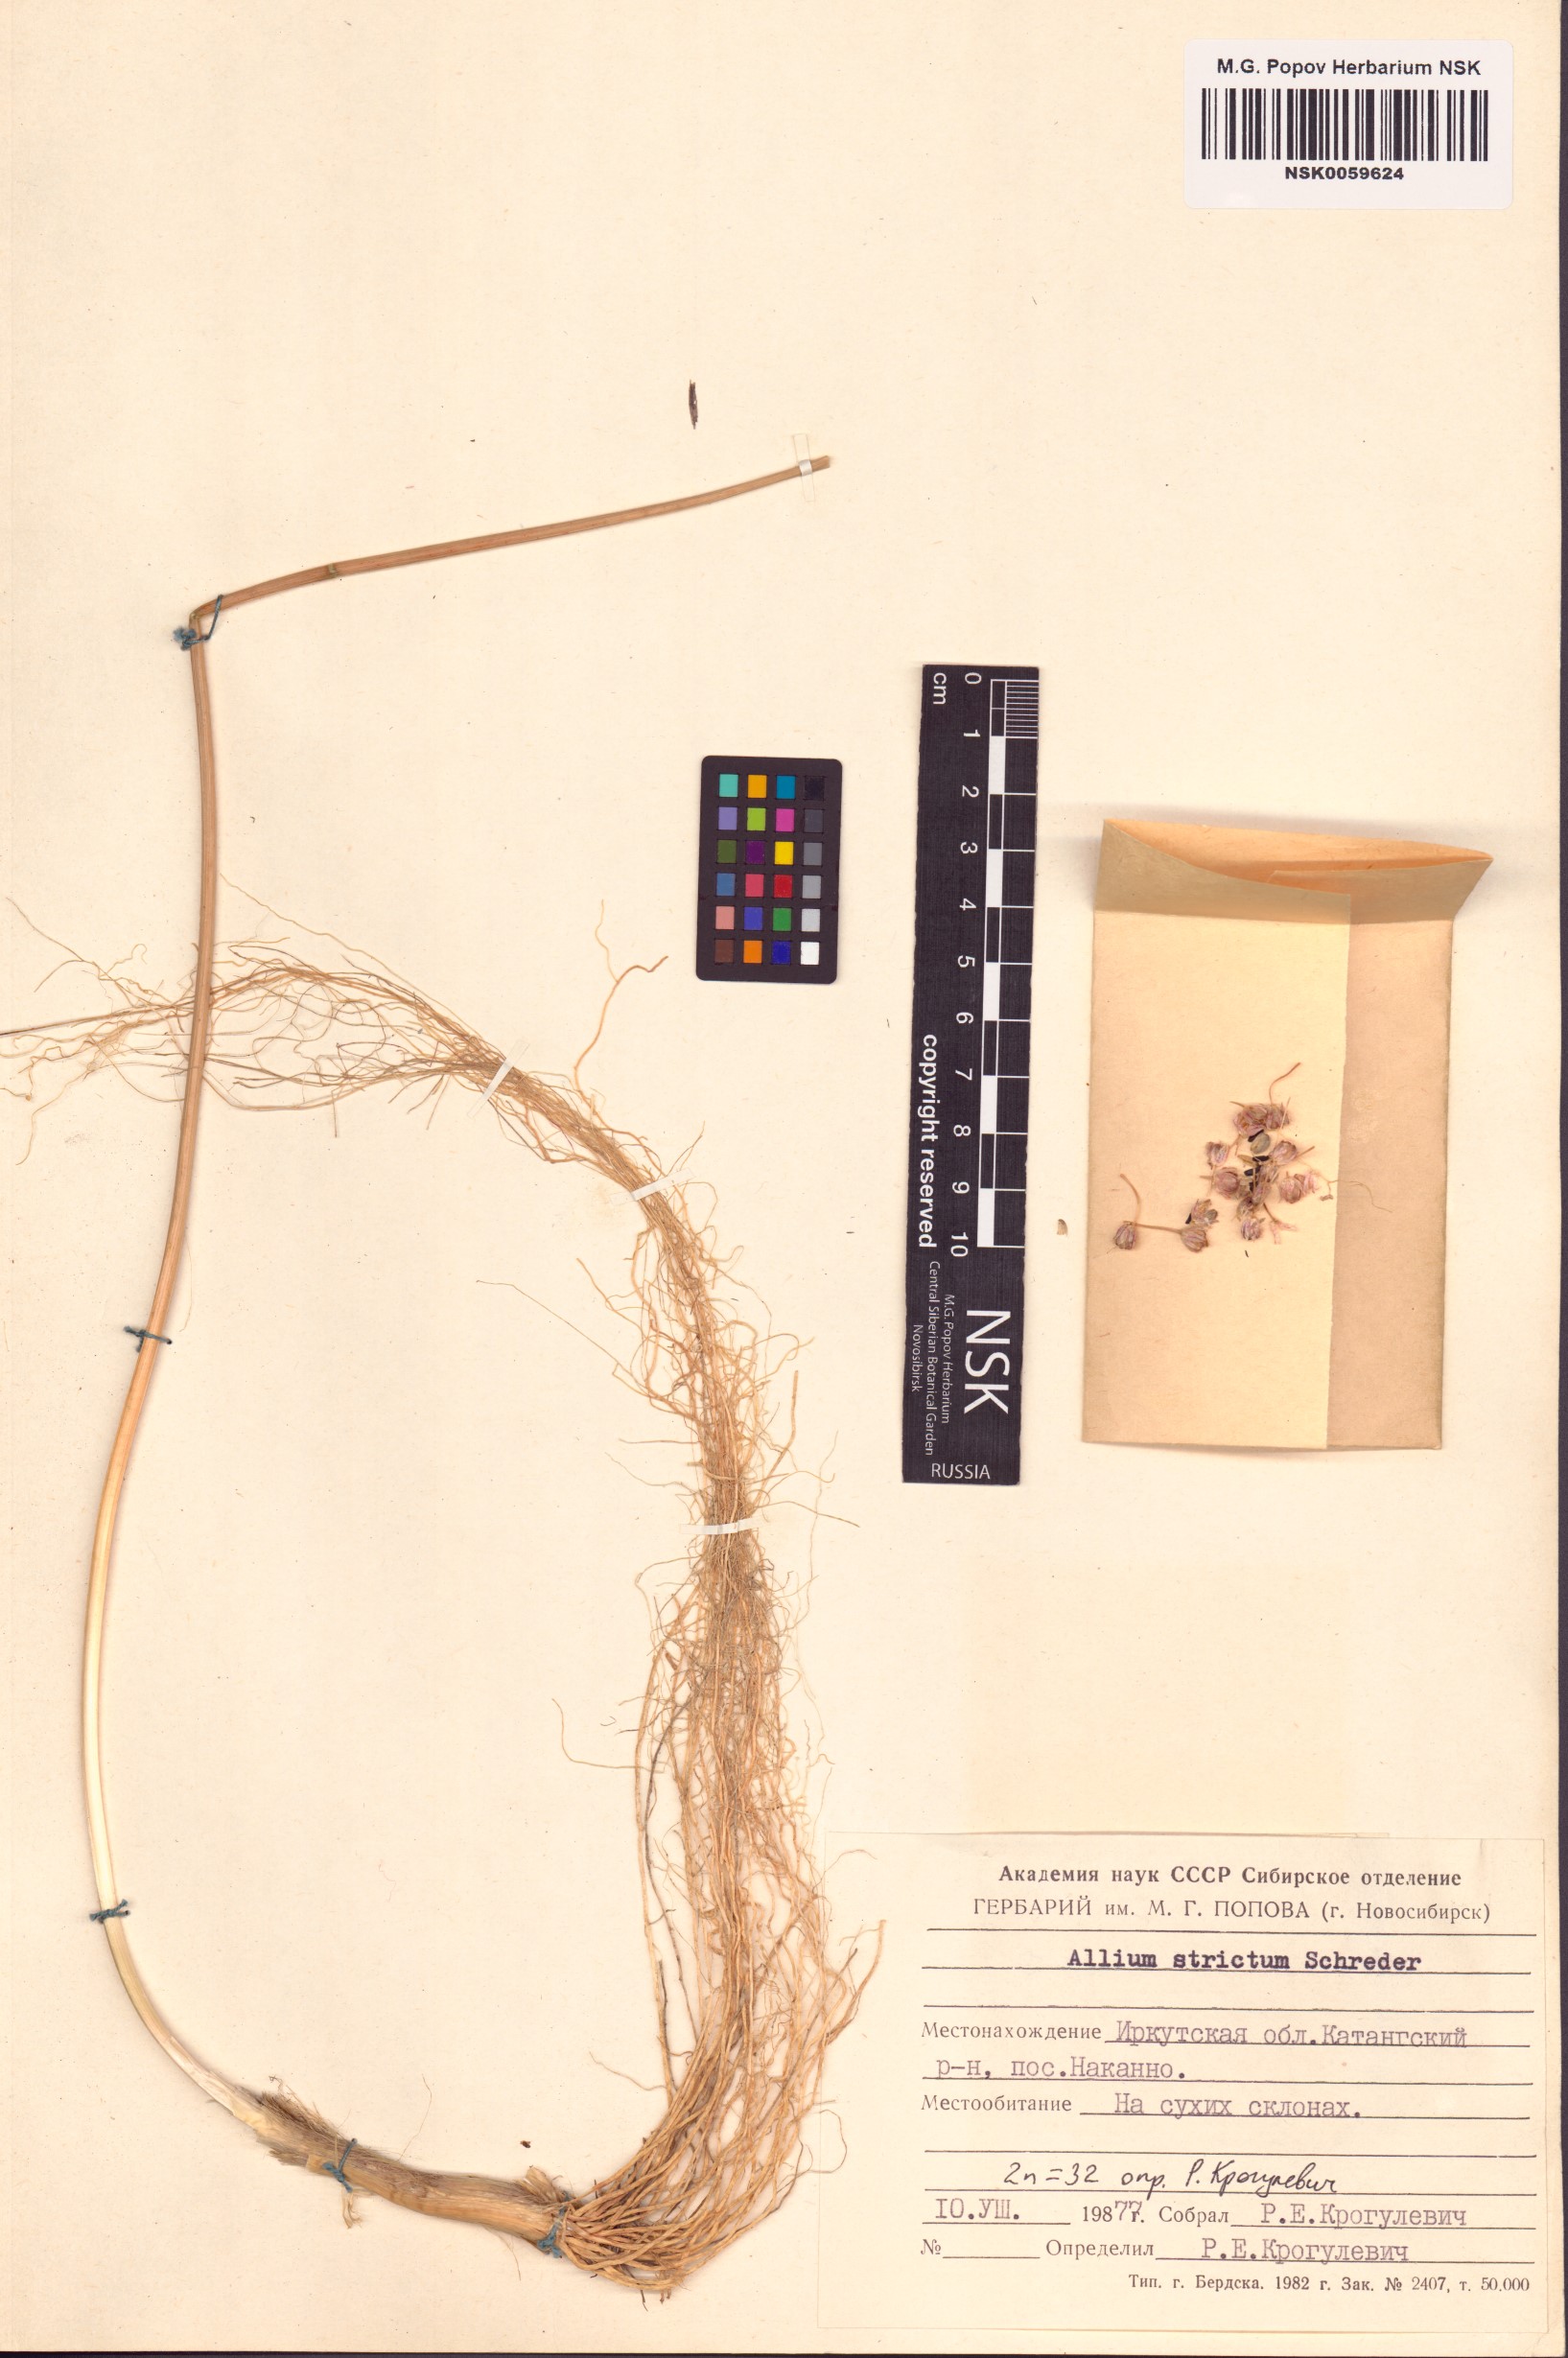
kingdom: Plantae
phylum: Tracheophyta
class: Liliopsida
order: Asparagales
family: Amaryllidaceae
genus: Allium
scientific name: Allium strictum
